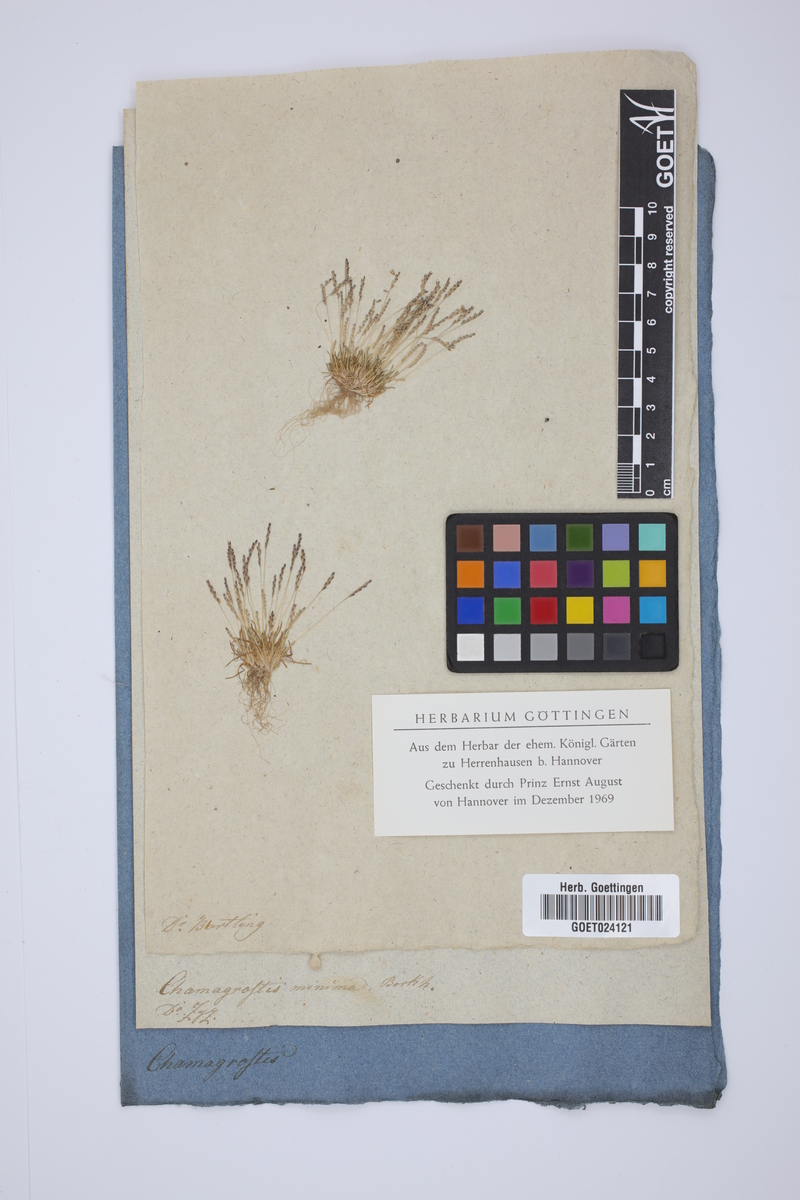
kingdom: Plantae
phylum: Tracheophyta
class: Liliopsida
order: Poales
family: Poaceae
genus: Mibora
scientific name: Mibora minima
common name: Early sand-grass
